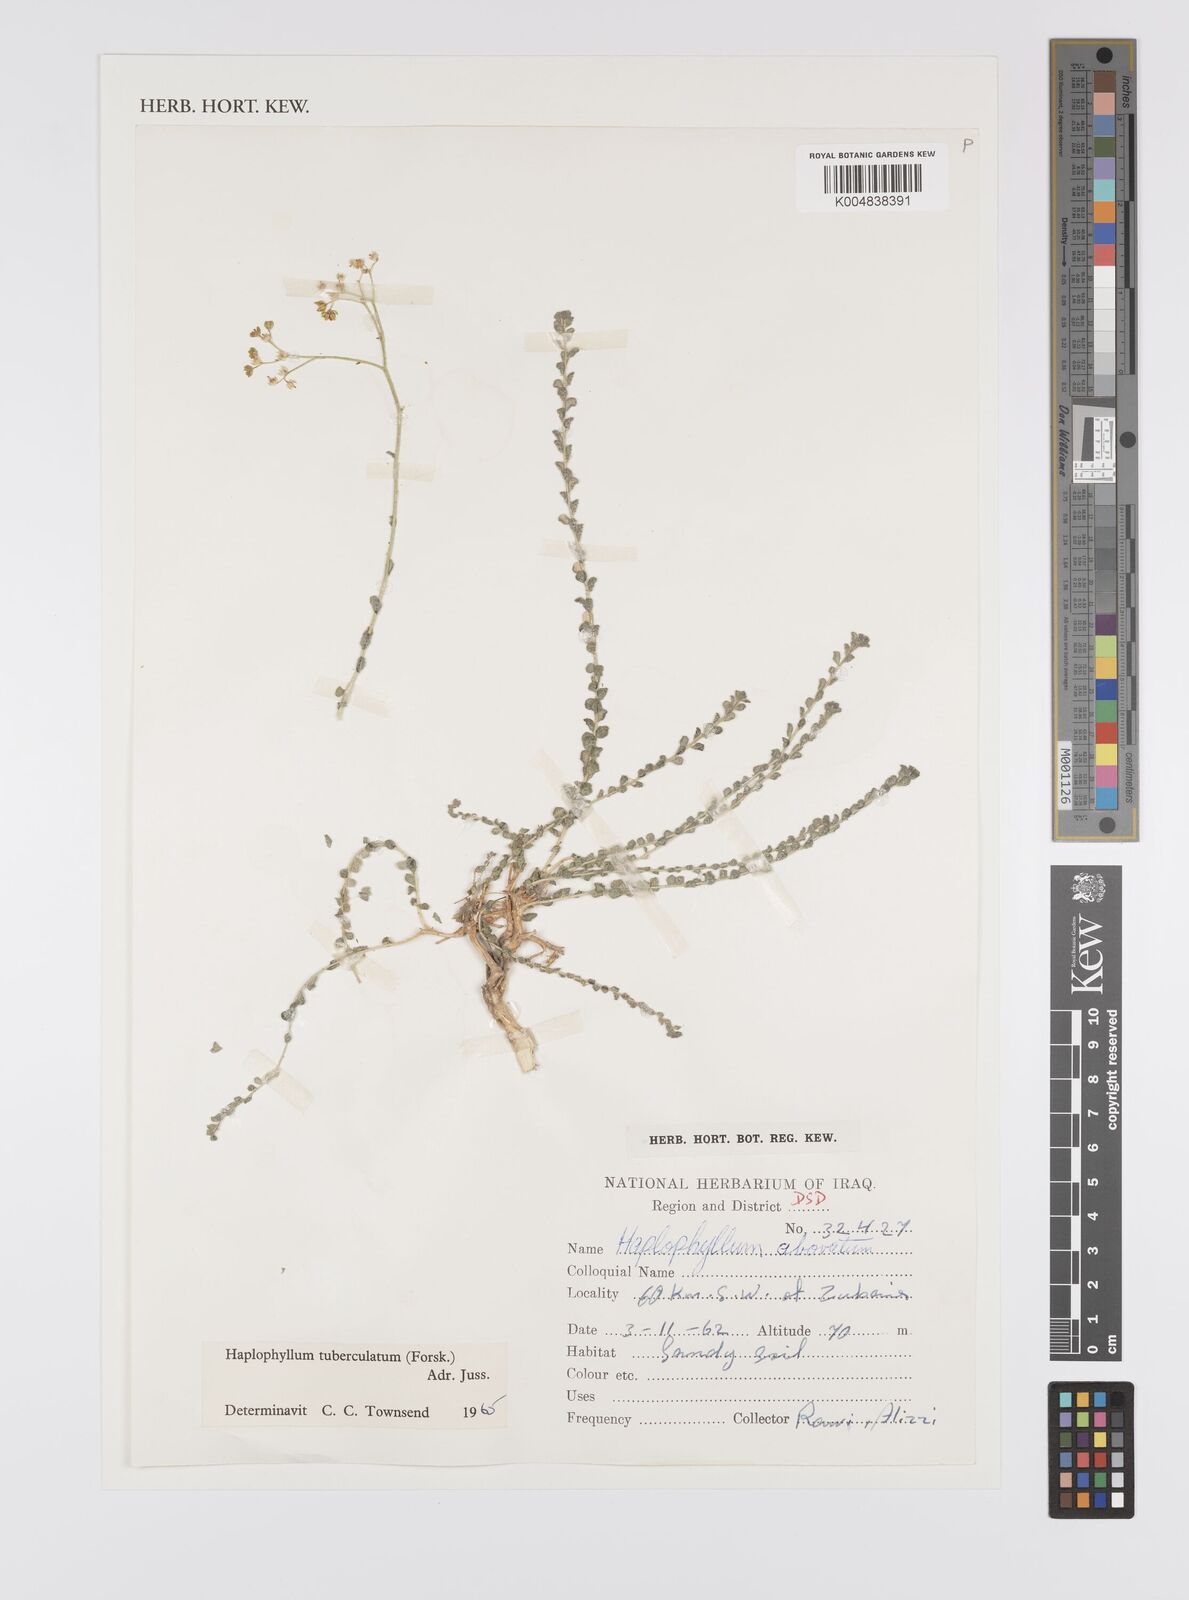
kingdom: Plantae
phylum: Tracheophyta
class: Magnoliopsida
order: Sapindales
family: Rutaceae
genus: Haplophyllum
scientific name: Haplophyllum tuberculatum
